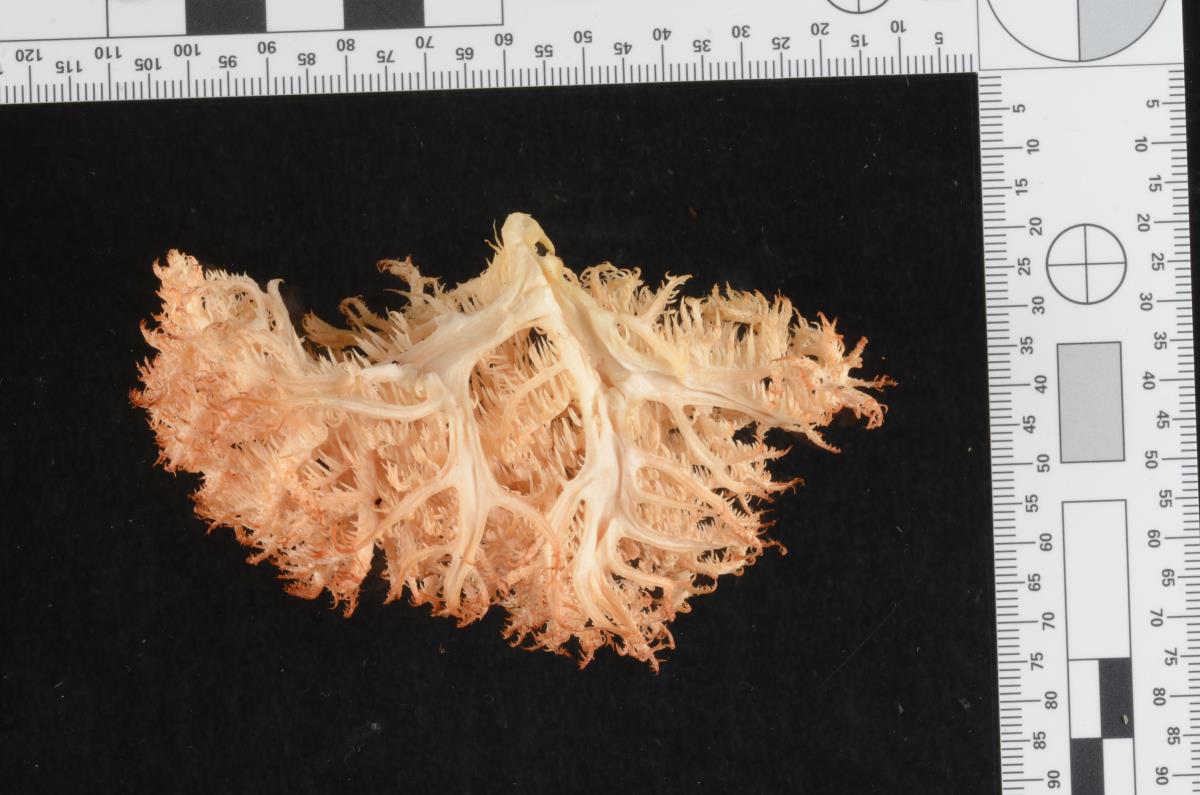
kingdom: Fungi
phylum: Basidiomycota
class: Agaricomycetes
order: Russulales
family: Hericiaceae
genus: Hericium
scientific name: Hericium novae-zealandiae
